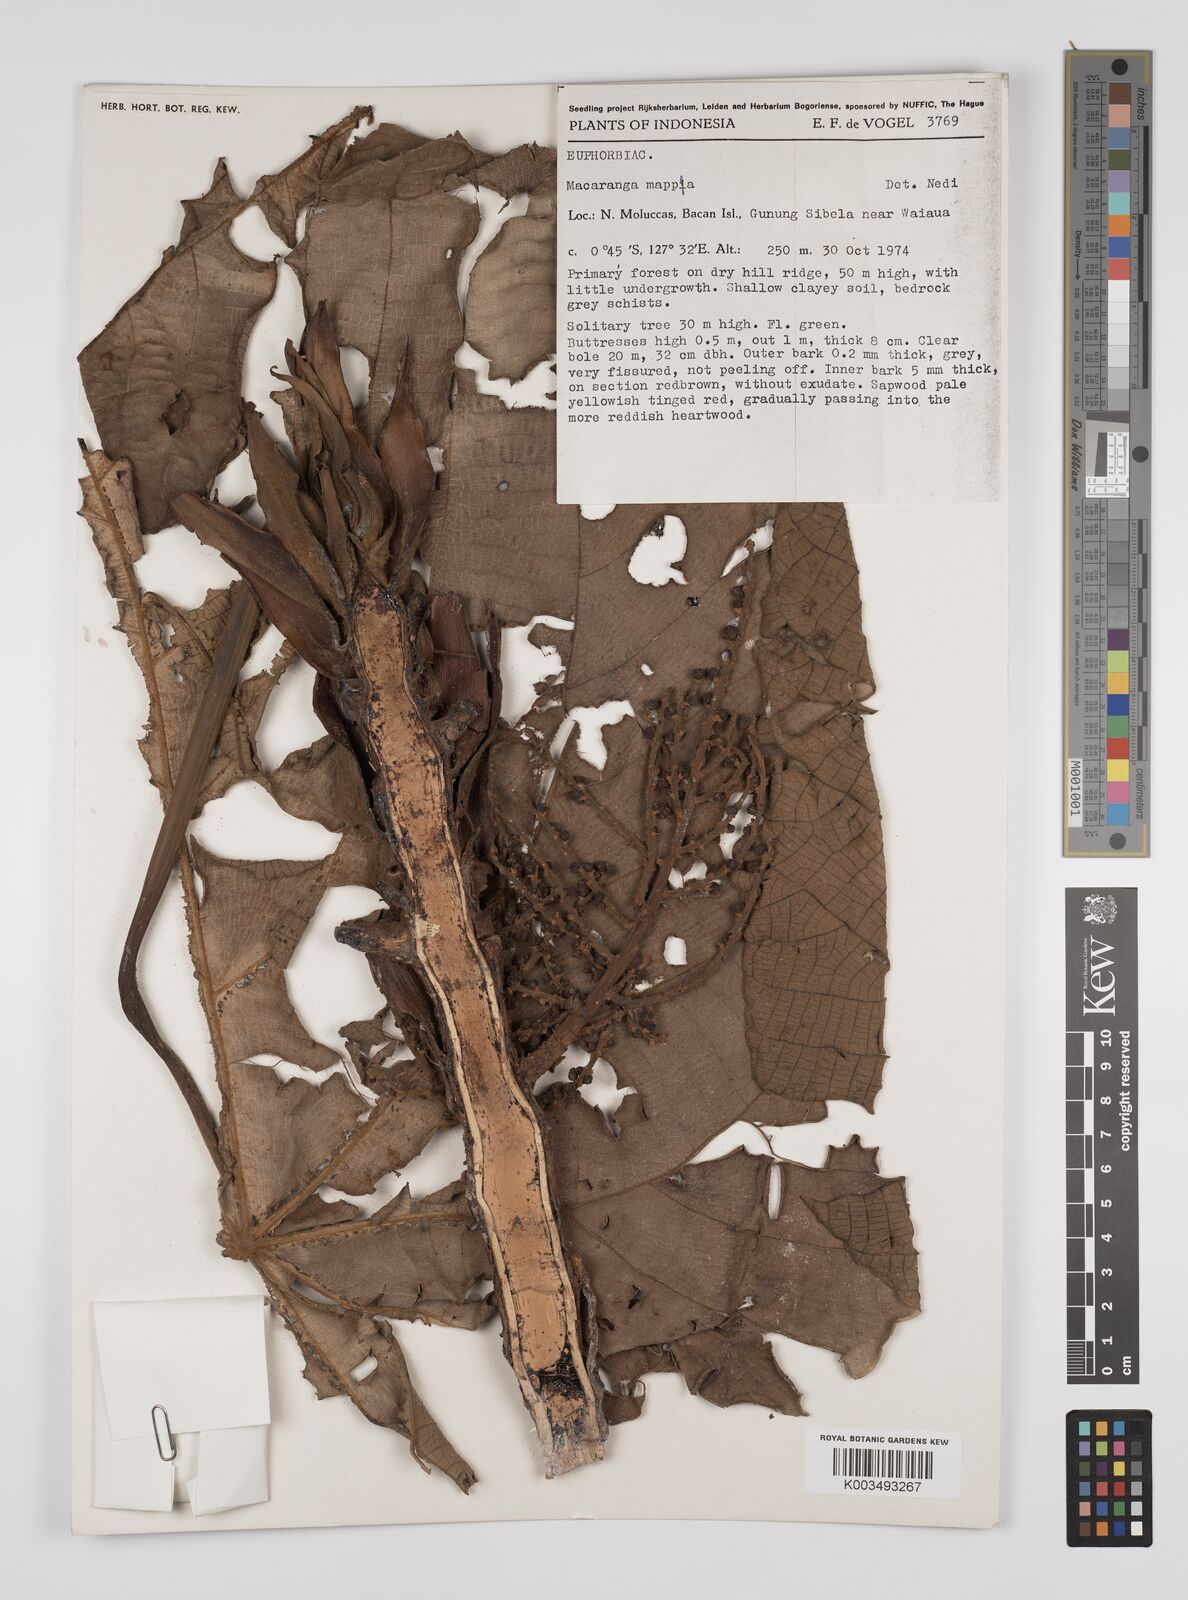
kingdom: Plantae
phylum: Tracheophyta
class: Magnoliopsida
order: Malpighiales
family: Euphorbiaceae
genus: Macaranga
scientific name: Macaranga mappa
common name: Pengua
